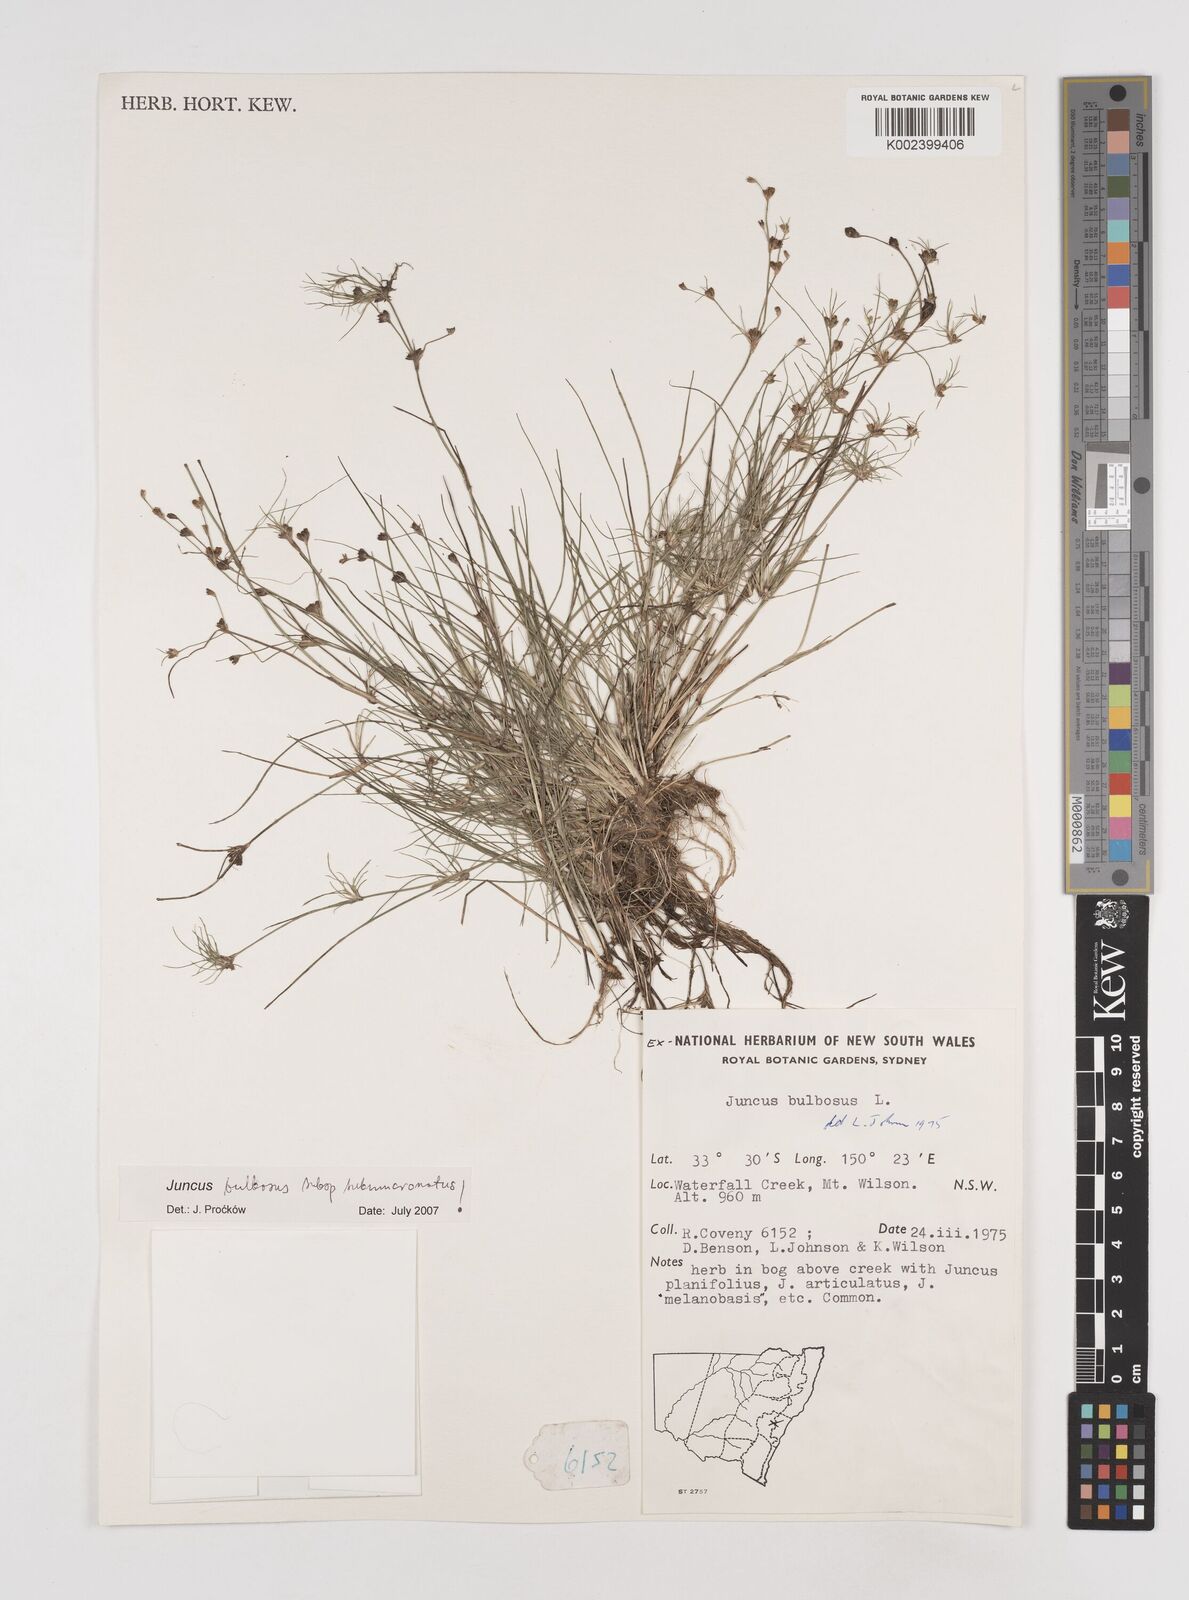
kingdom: Plantae
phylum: Tracheophyta
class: Liliopsida
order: Poales
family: Juncaceae
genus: Juncus
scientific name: Juncus bulbosus
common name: Bulbous rush
